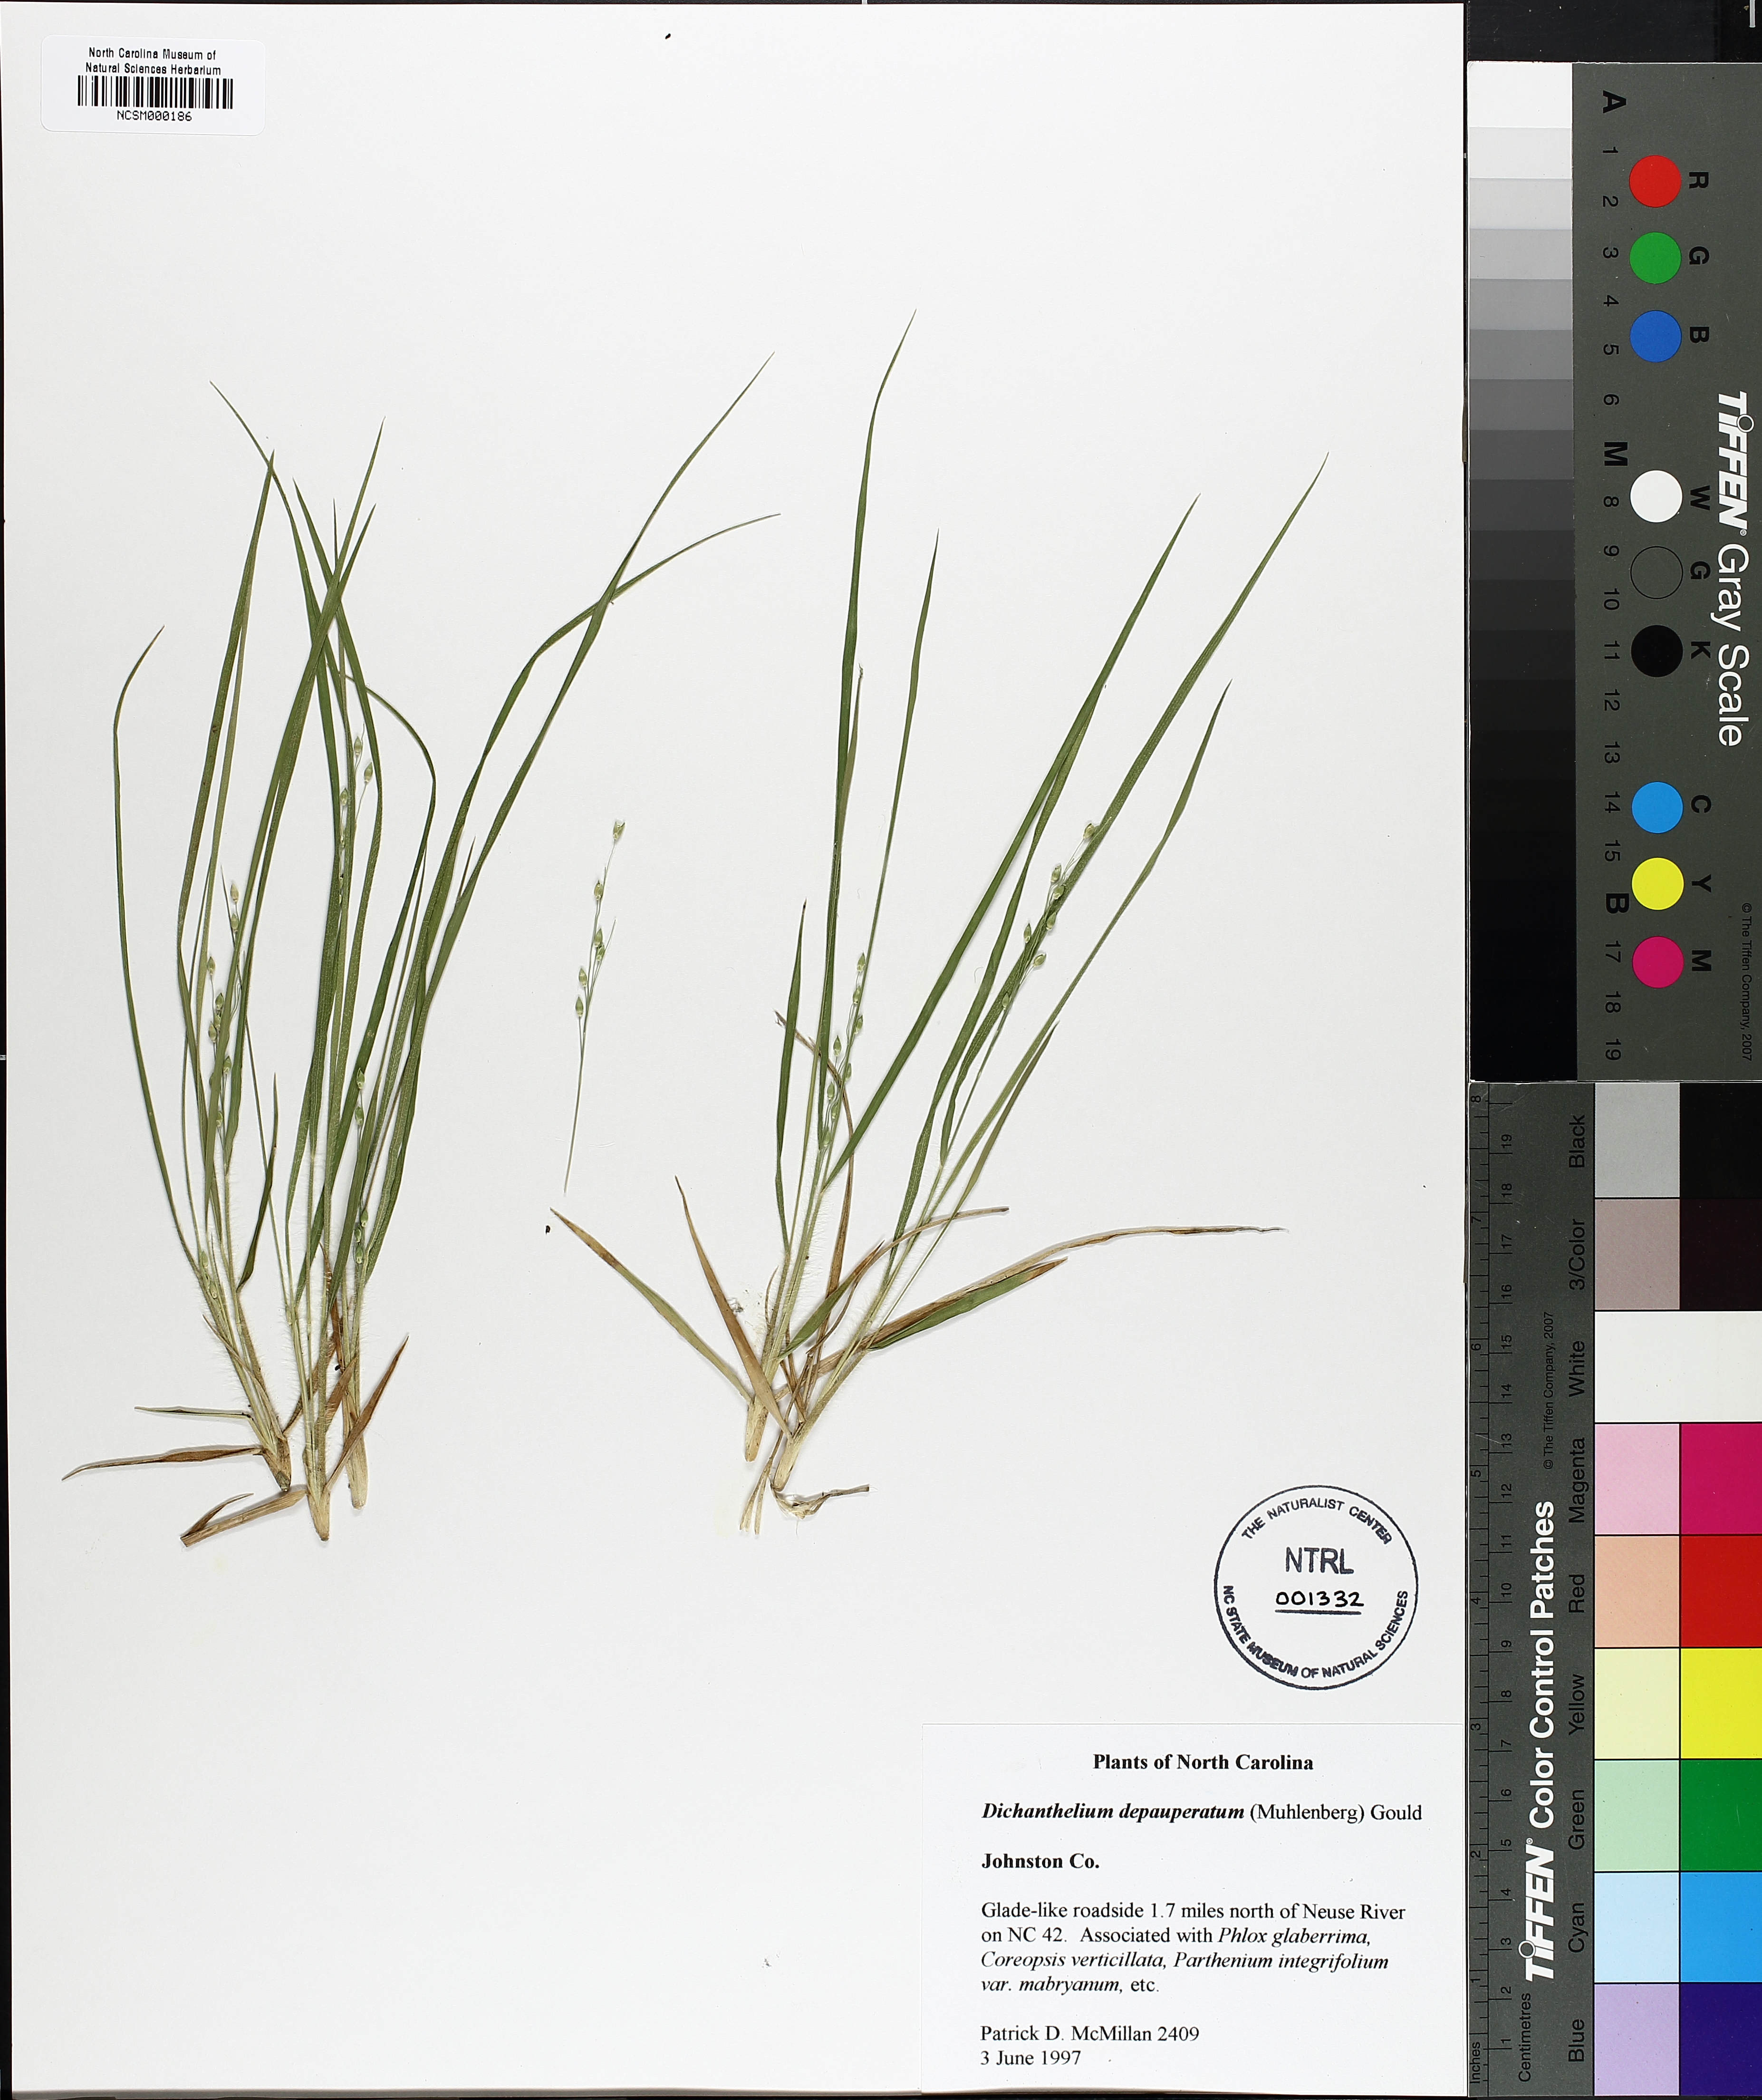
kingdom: Plantae
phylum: Tracheophyta
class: Liliopsida
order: Poales
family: Poaceae
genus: Dichanthelium
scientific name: Dichanthelium depauperatum
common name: Depauperate panicgrass
